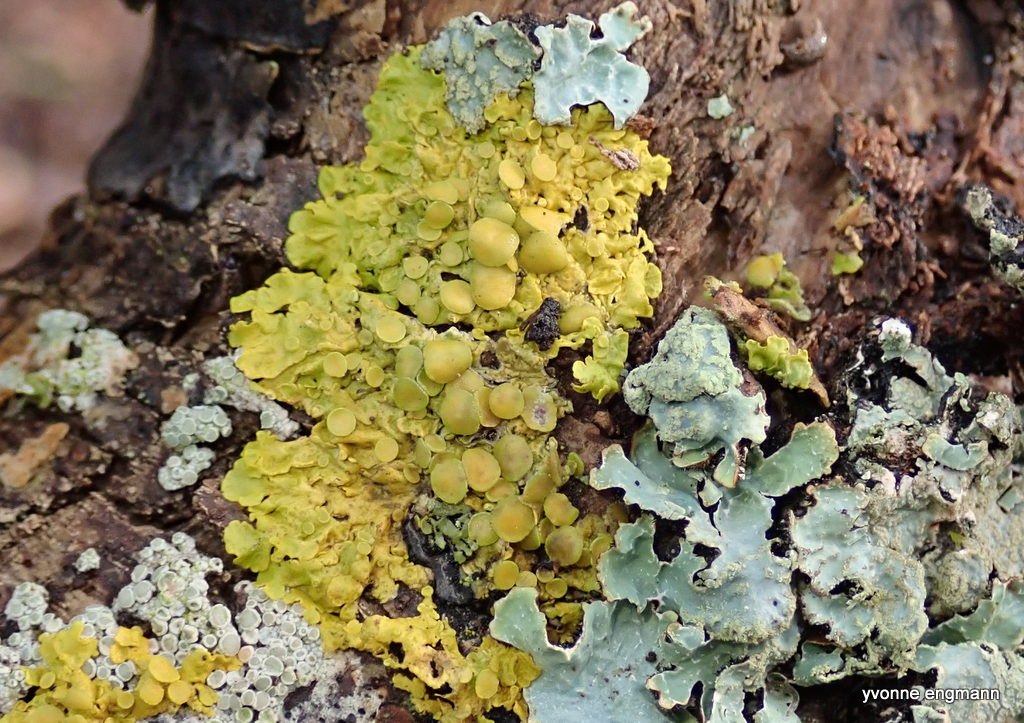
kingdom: Fungi
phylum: Ascomycota
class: Lecanoromycetes
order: Teloschistales
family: Teloschistaceae
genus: Xanthoria
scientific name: Xanthoria parietina
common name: almindelig væggelav
